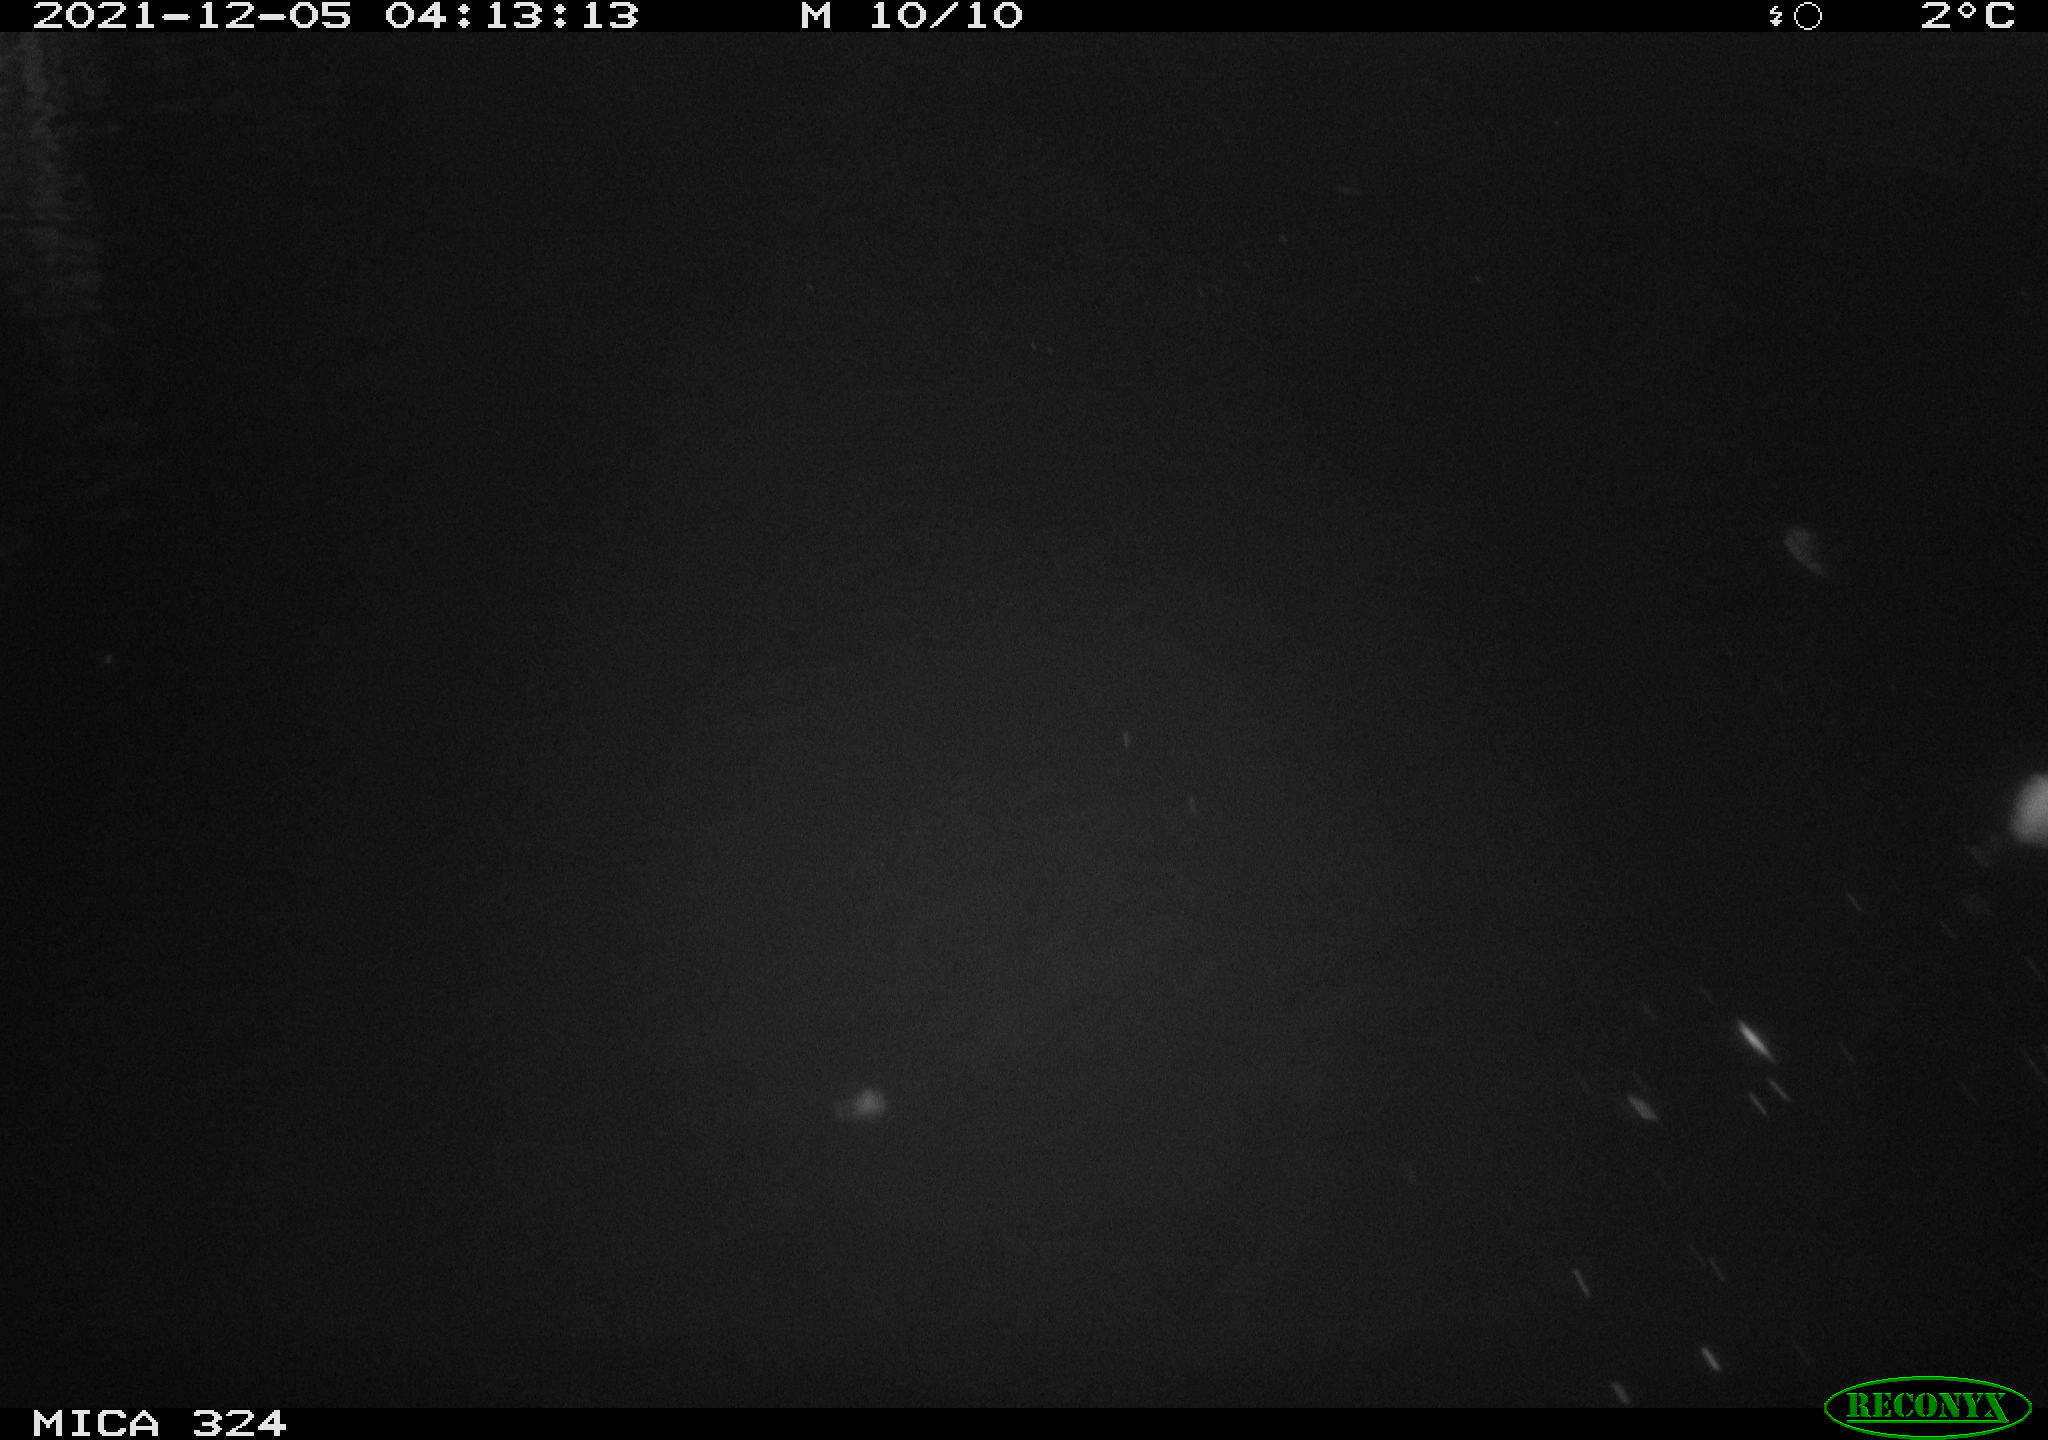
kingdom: Animalia
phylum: Chordata
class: Mammalia
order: Rodentia
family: Cricetidae
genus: Ondatra
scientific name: Ondatra zibethicus
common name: Muskrat
